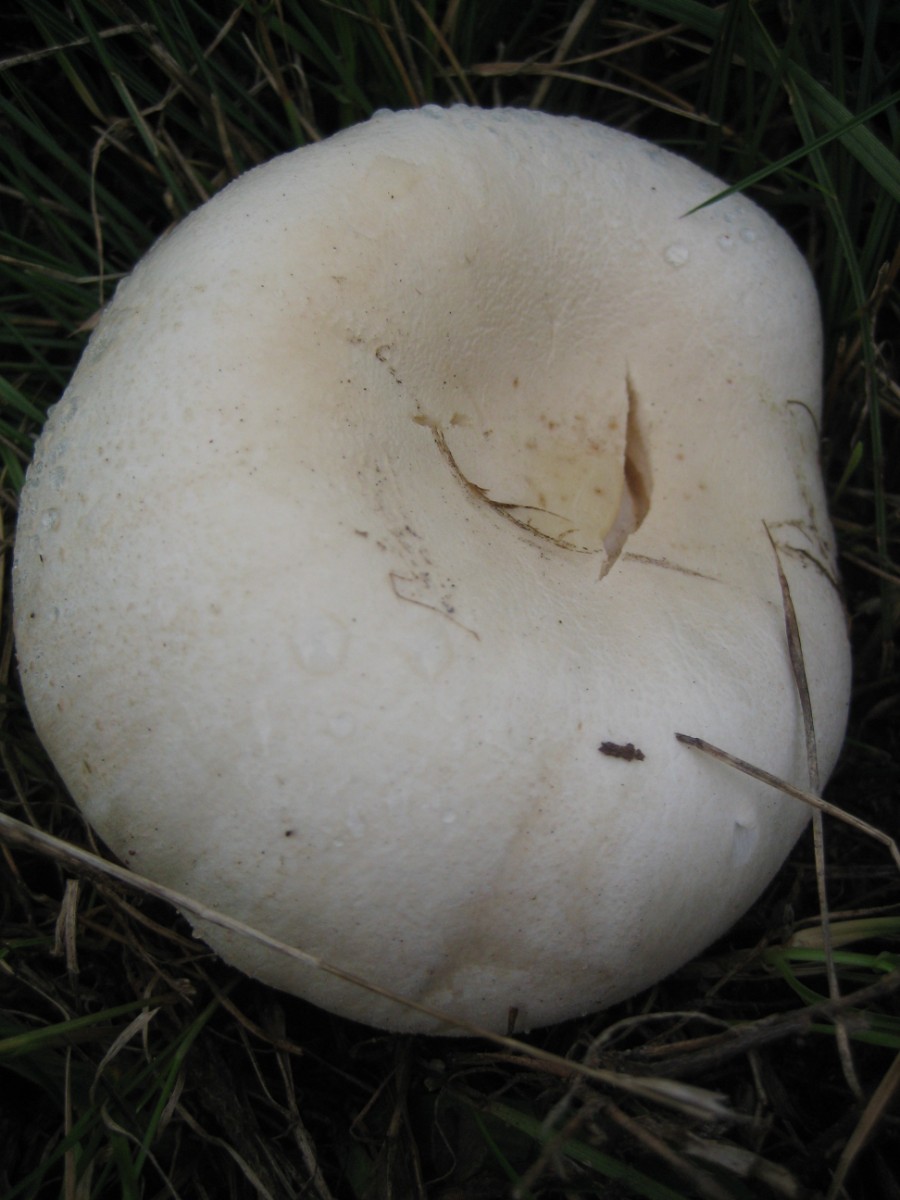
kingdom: Fungi
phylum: Basidiomycota
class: Agaricomycetes
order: Agaricales
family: Agaricaceae
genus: Leucoagaricus
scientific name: Leucoagaricus leucothites
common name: rosabladet silkehat
